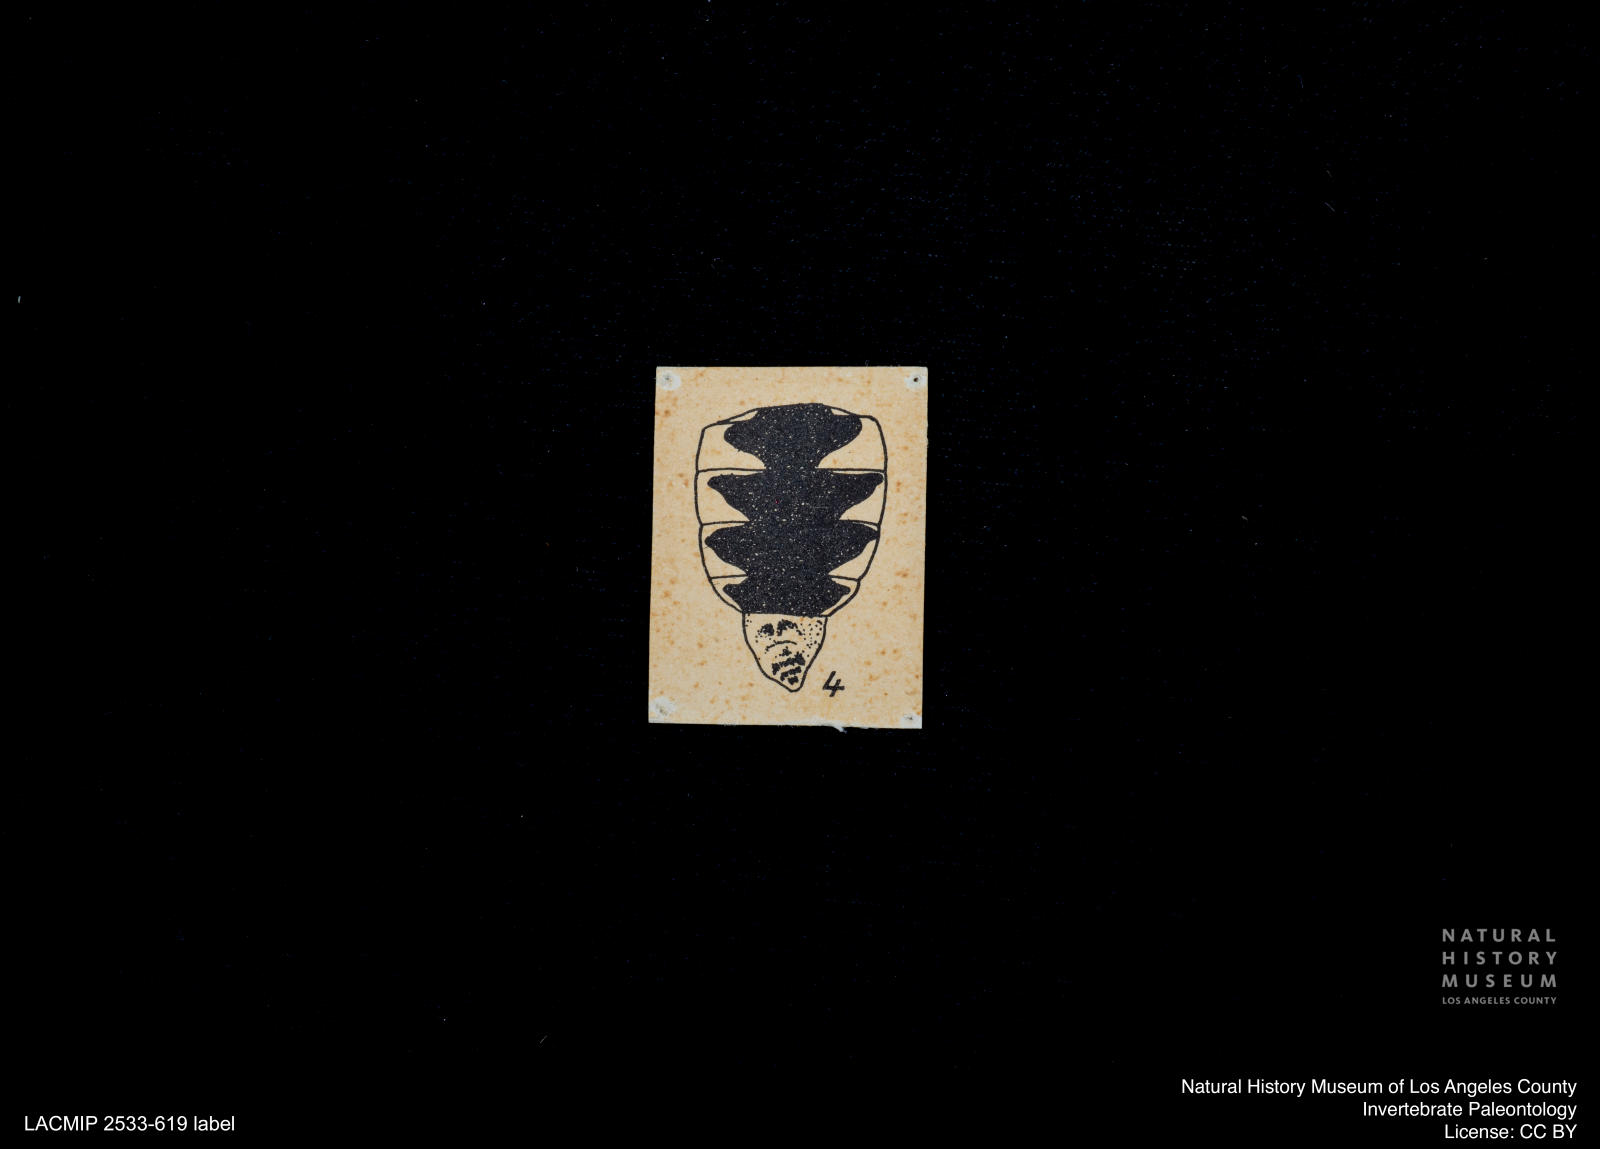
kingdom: Animalia
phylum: Arthropoda
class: Insecta
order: Diptera
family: Stratiomyidae
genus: Odontomyia
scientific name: Odontomyia
